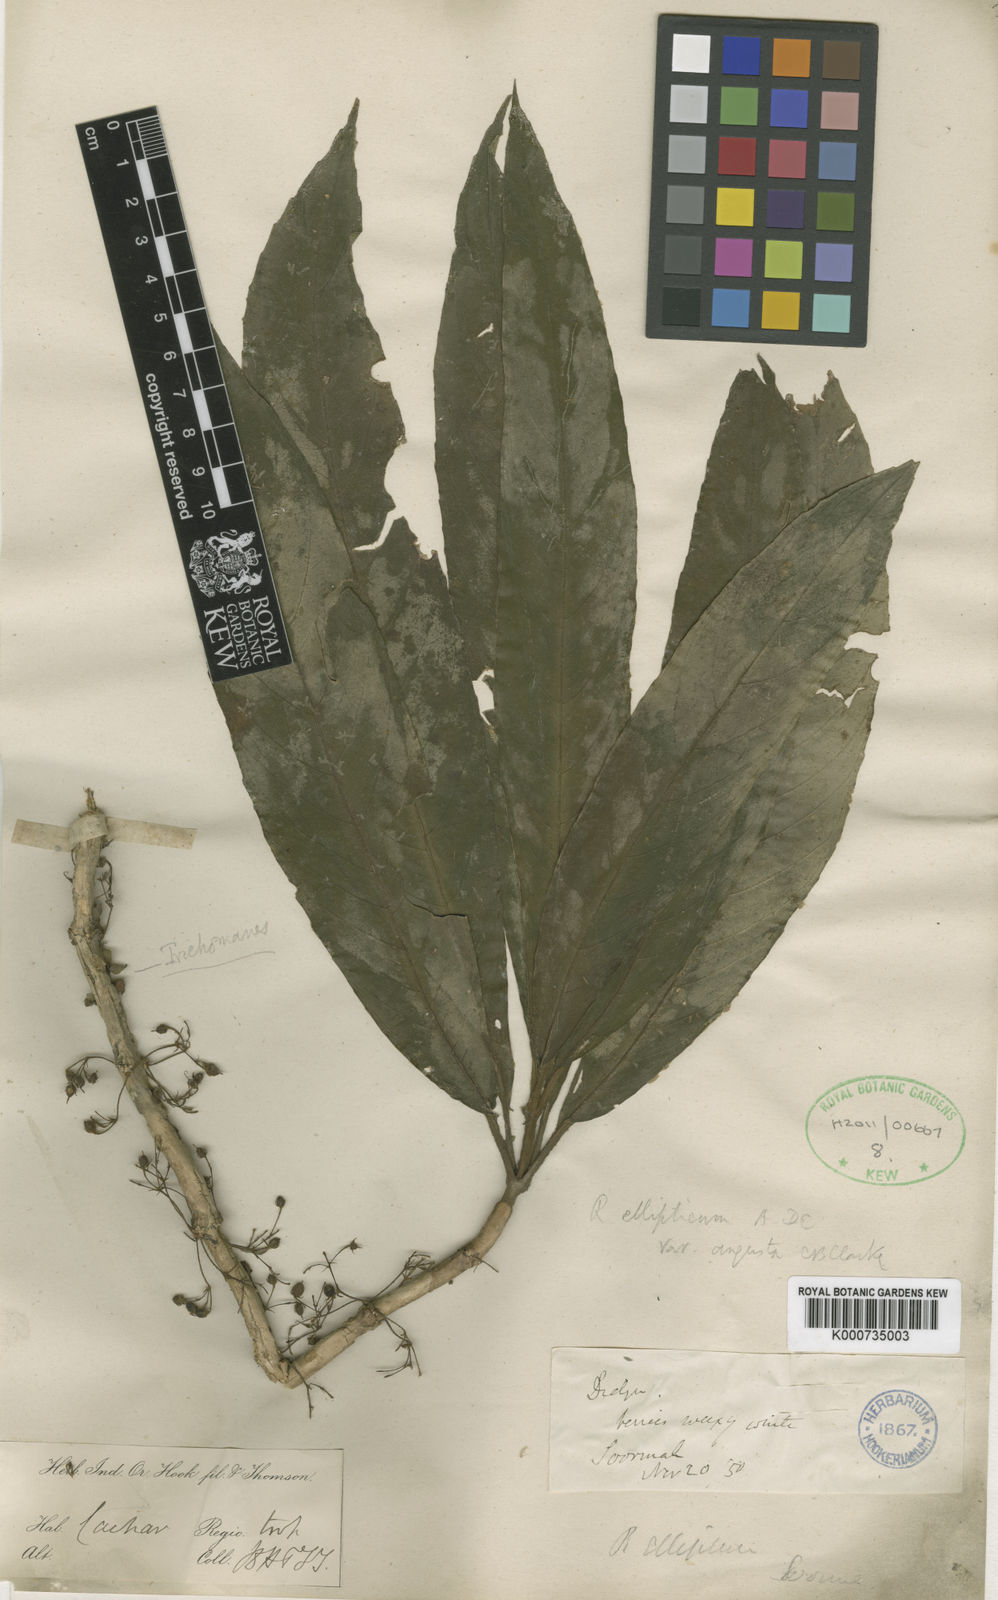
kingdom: Plantae
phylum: Tracheophyta
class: Magnoliopsida
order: Lamiales
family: Gesneriaceae
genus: Rhynchotechum
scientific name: Rhynchotechum ellipticum
